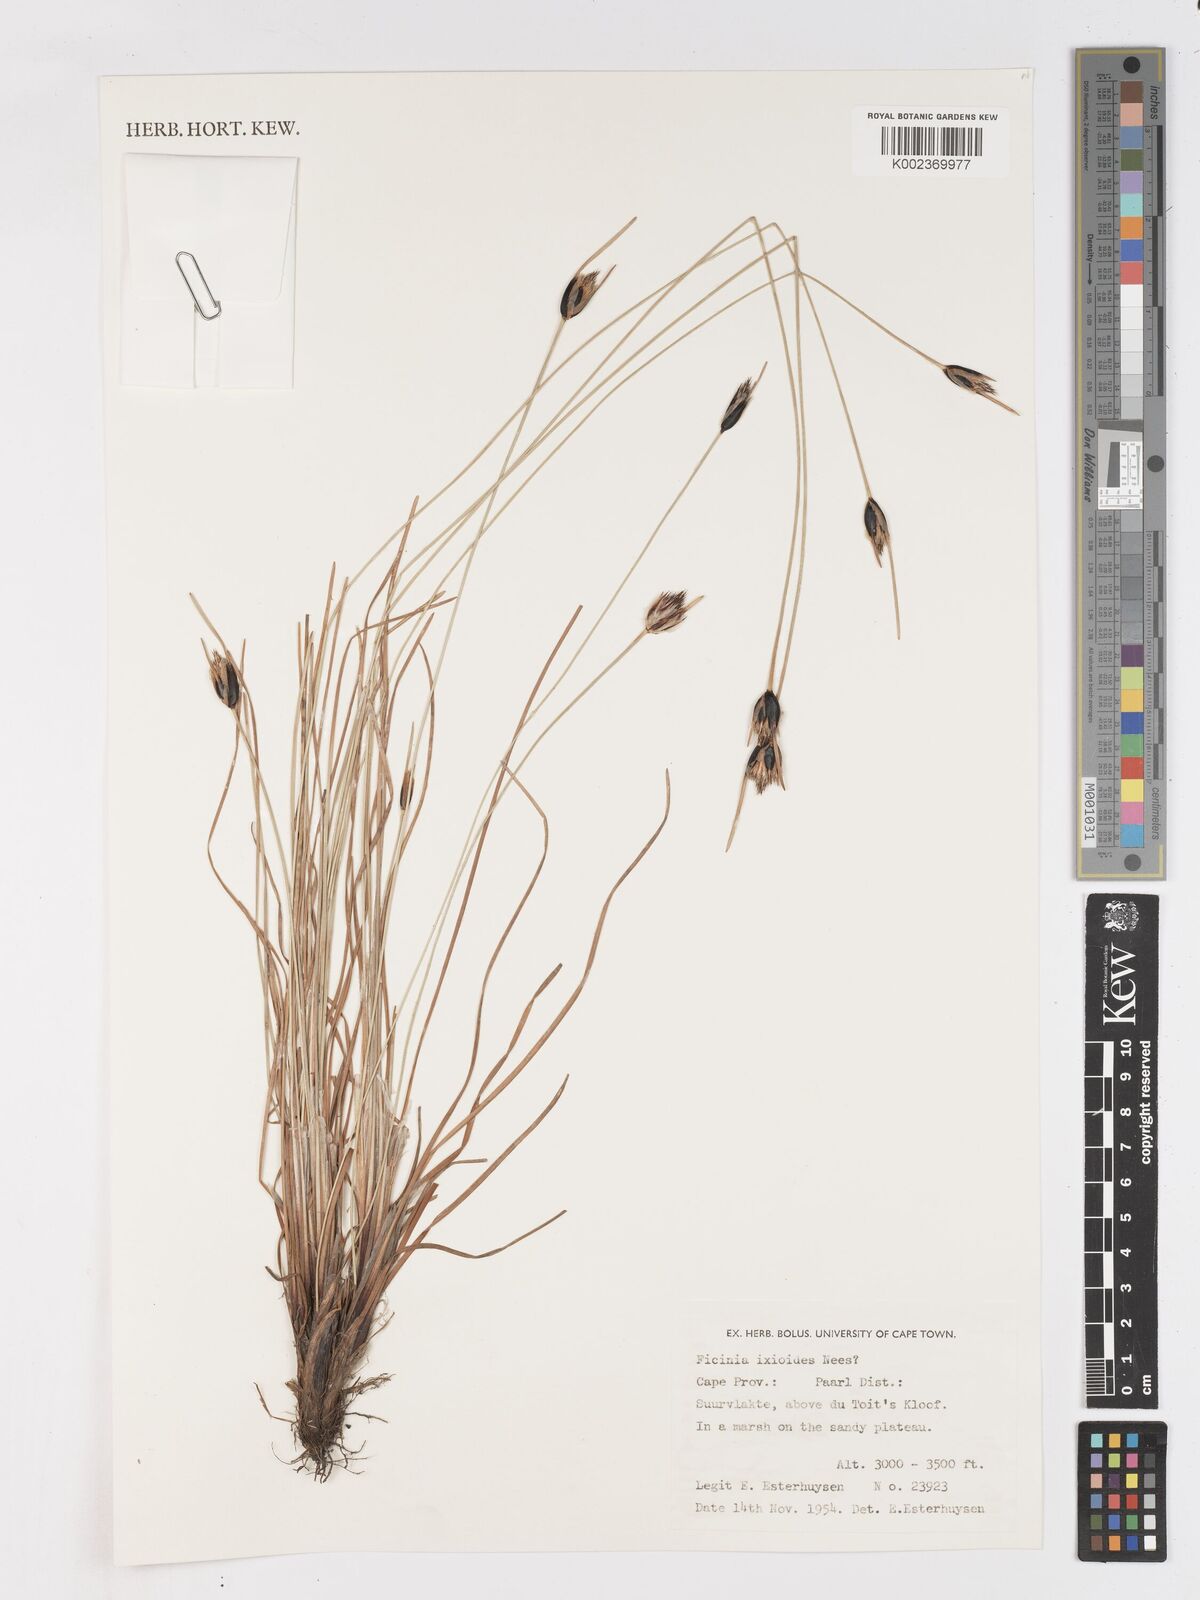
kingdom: Plantae
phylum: Tracheophyta
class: Liliopsida
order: Poales
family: Cyperaceae
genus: Ficinia
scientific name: Ficinia ixioides
